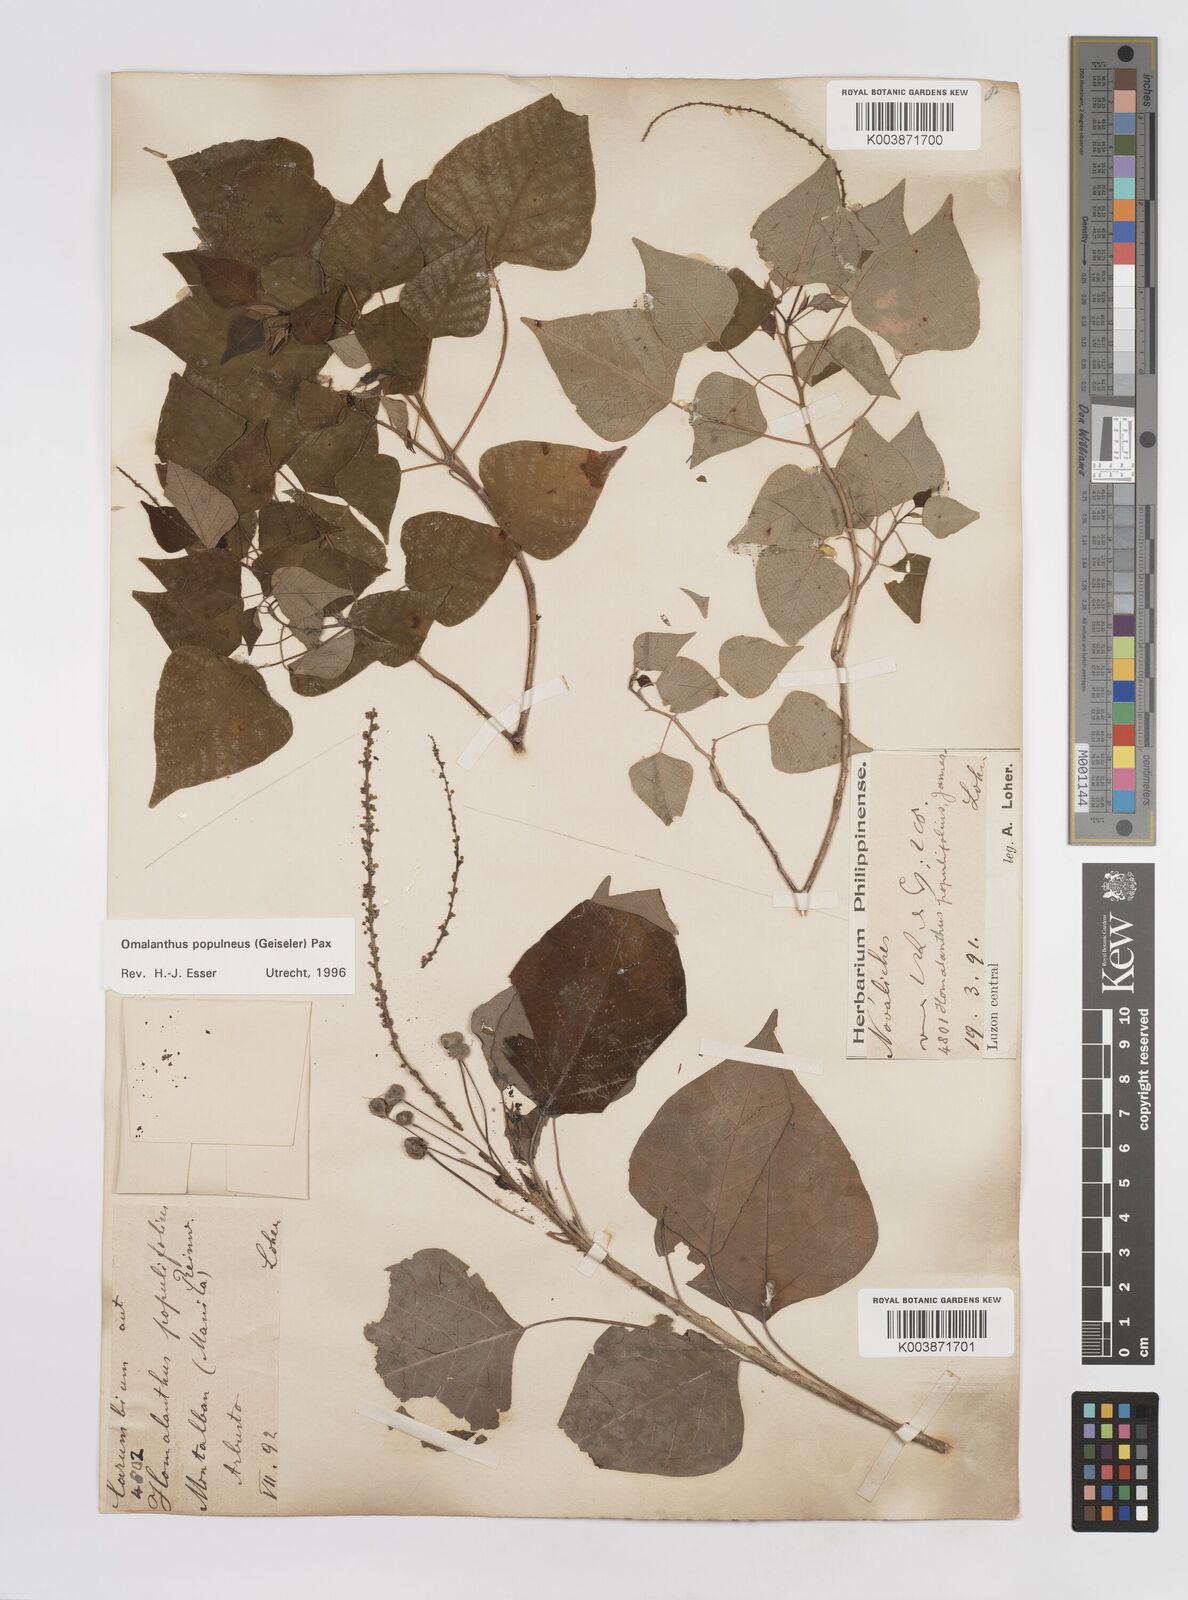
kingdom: Plantae
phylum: Tracheophyta
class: Magnoliopsida
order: Malpighiales
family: Euphorbiaceae
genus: Homalanthus
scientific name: Homalanthus populneus
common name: Spurge
